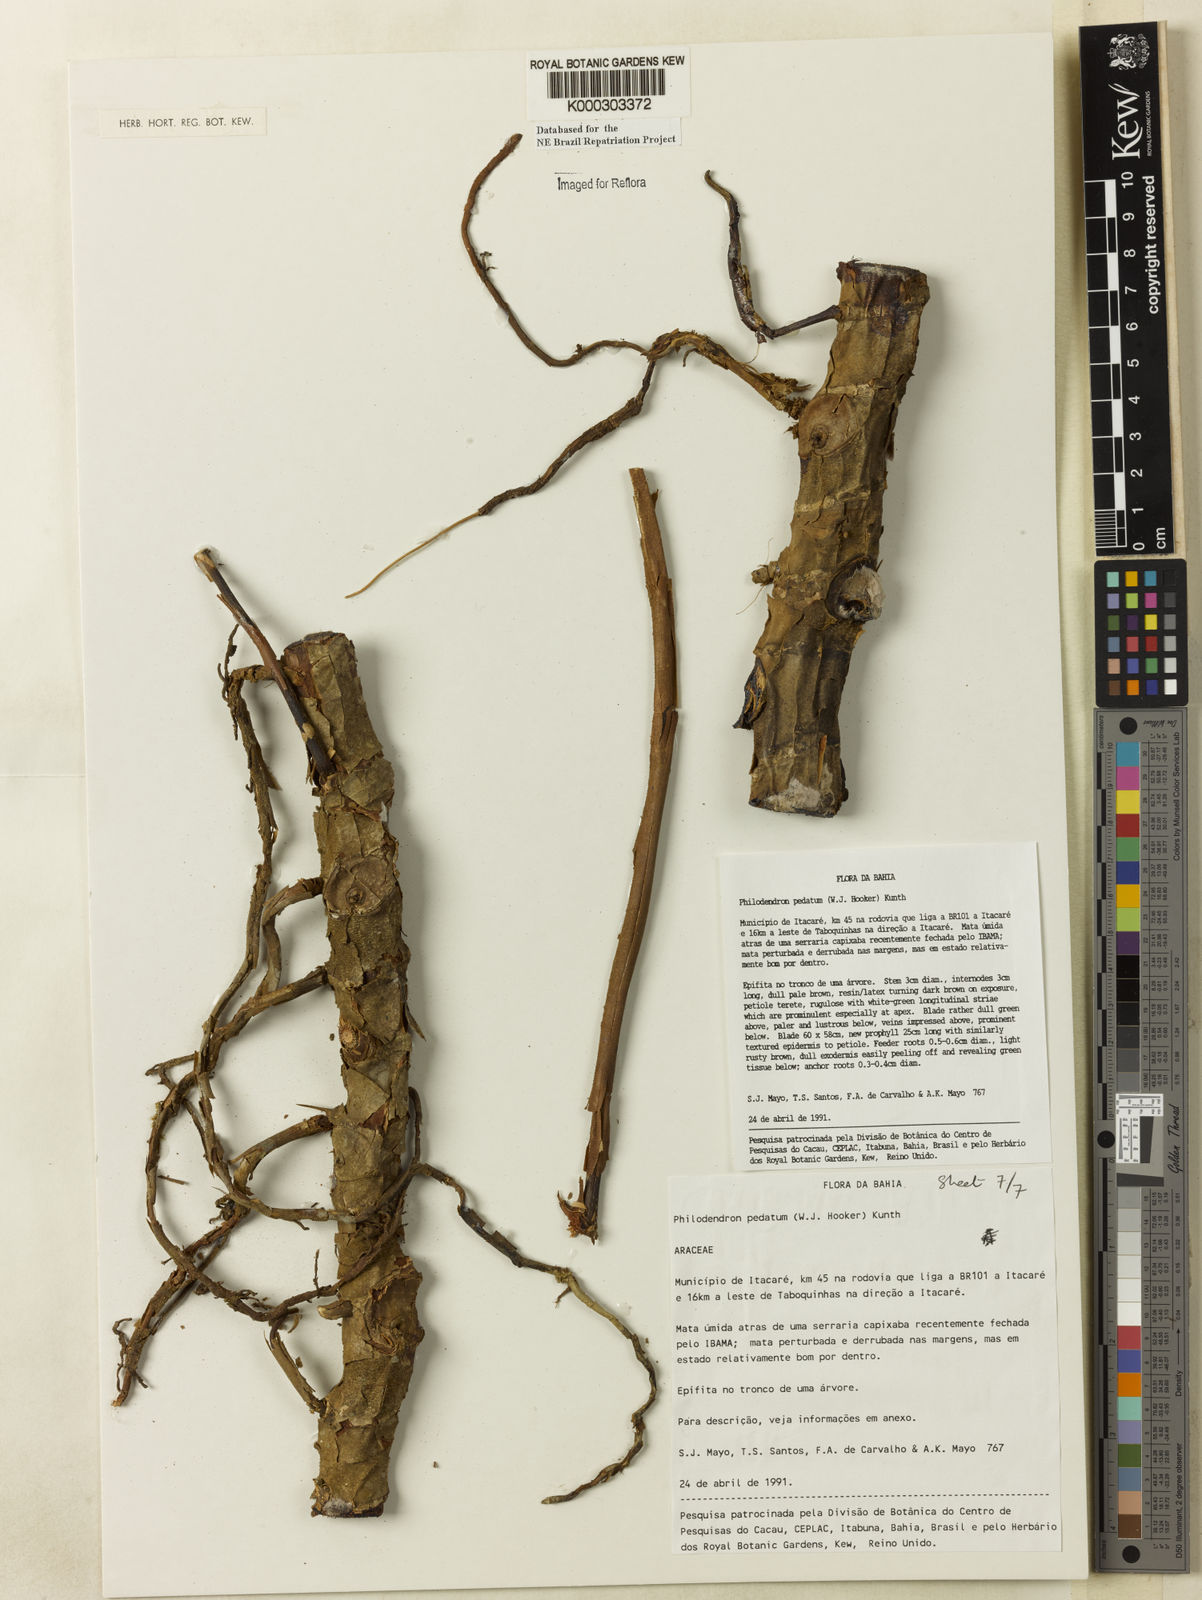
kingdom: Plantae
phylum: Tracheophyta
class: Liliopsida
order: Alismatales
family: Araceae
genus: Philodendron
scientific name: Philodendron pedatum
